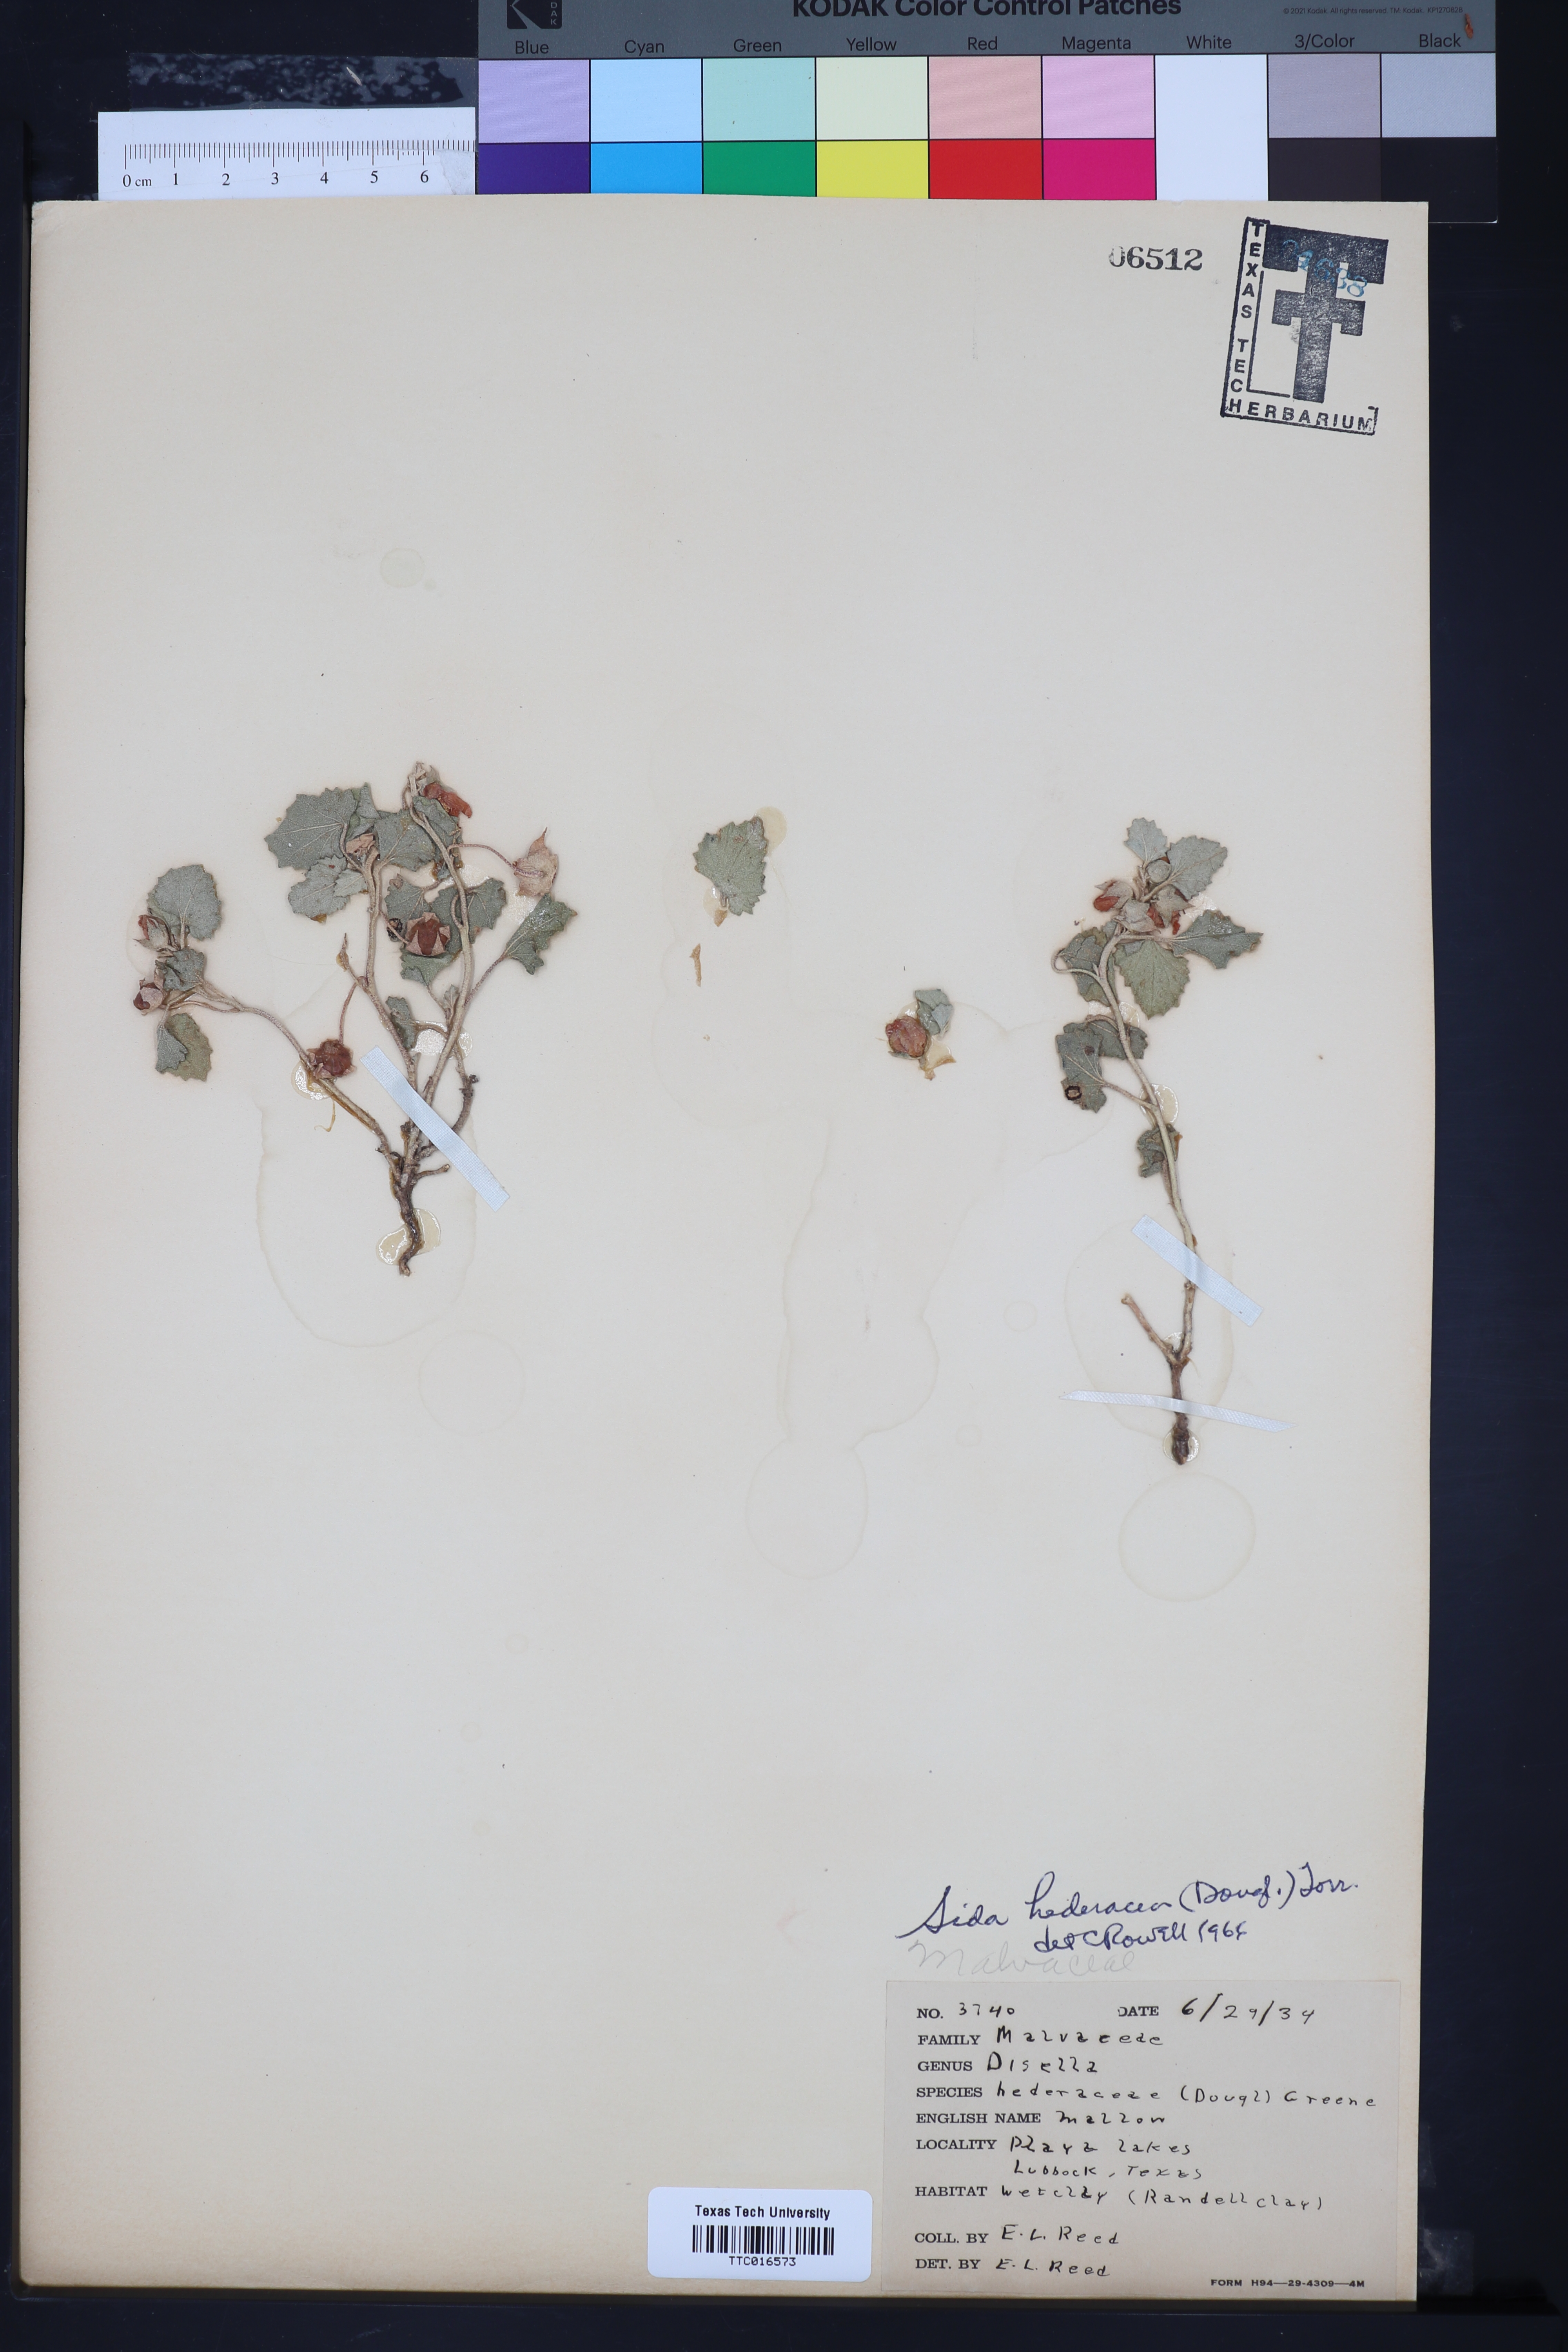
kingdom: Plantae
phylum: Tracheophyta
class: Magnoliopsida
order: Malvales
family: Malvaceae
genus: Malvella
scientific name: Malvella leprosa
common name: Alkali-mallow
